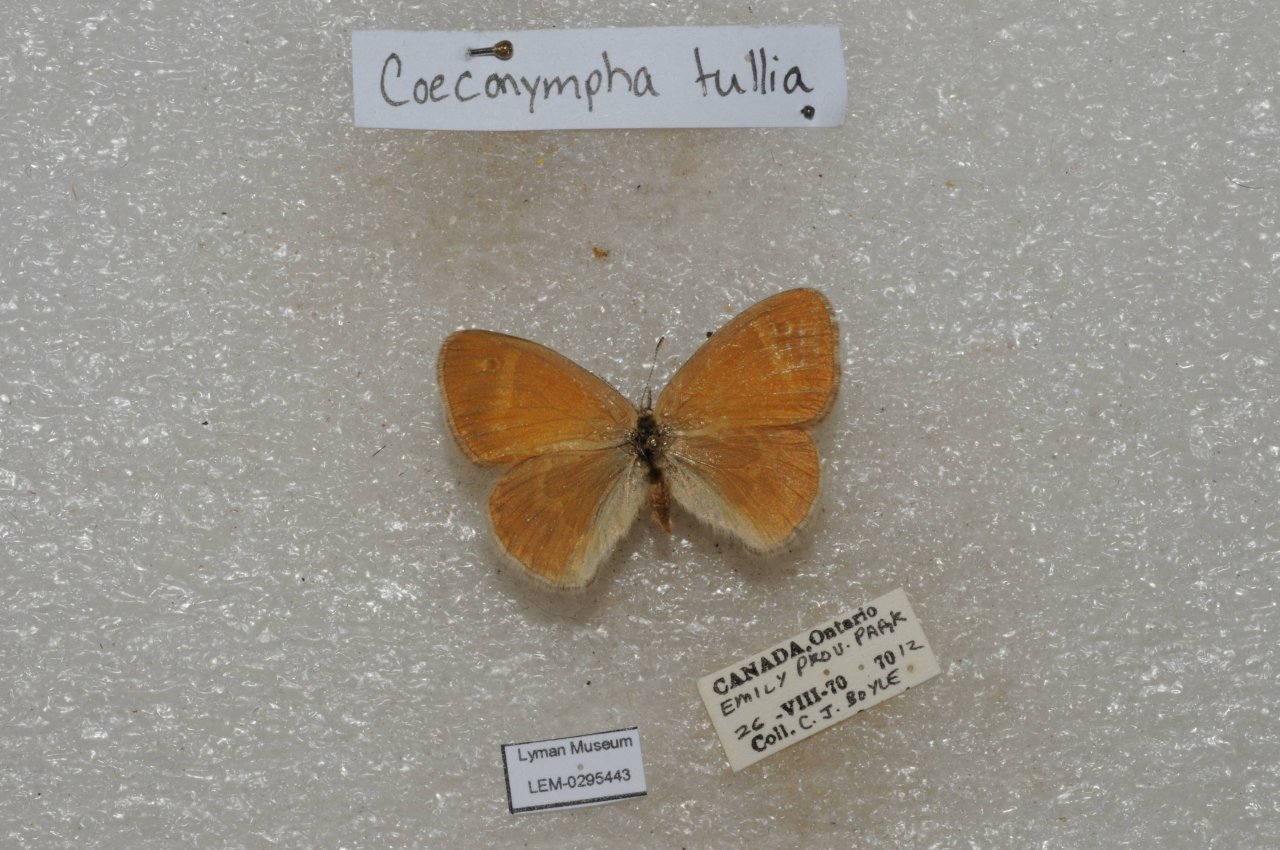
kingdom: Animalia
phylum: Arthropoda
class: Insecta
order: Lepidoptera
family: Nymphalidae
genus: Coenonympha
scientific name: Coenonympha tullia
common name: Large Heath
